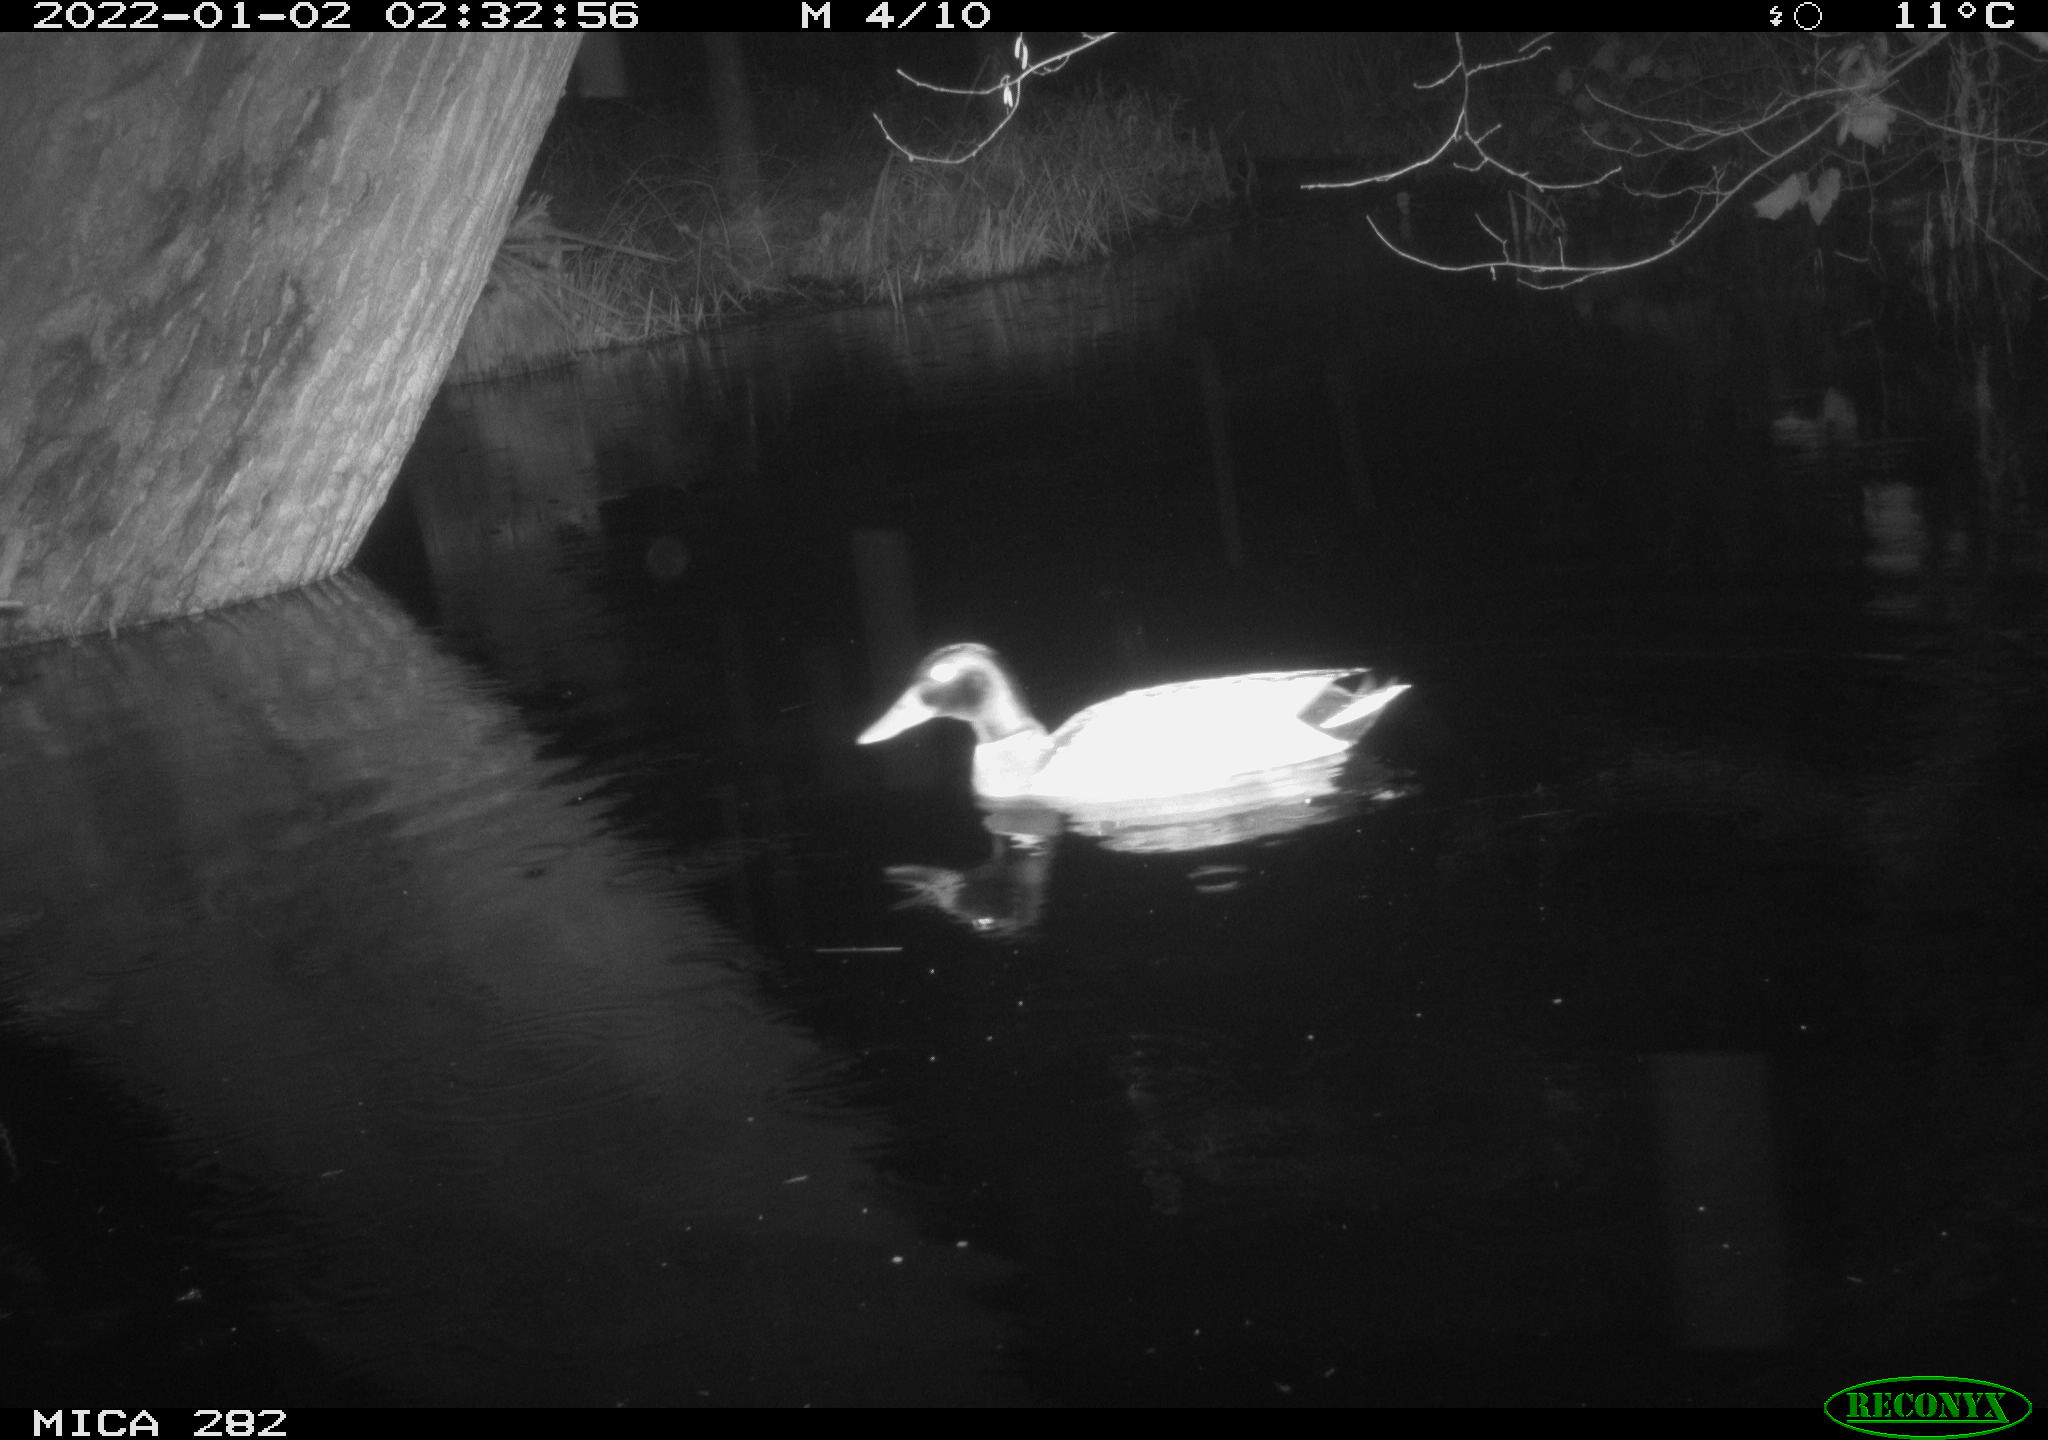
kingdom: Animalia
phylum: Chordata
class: Aves
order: Anseriformes
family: Anatidae
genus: Mareca
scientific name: Mareca strepera
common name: Gadwall
